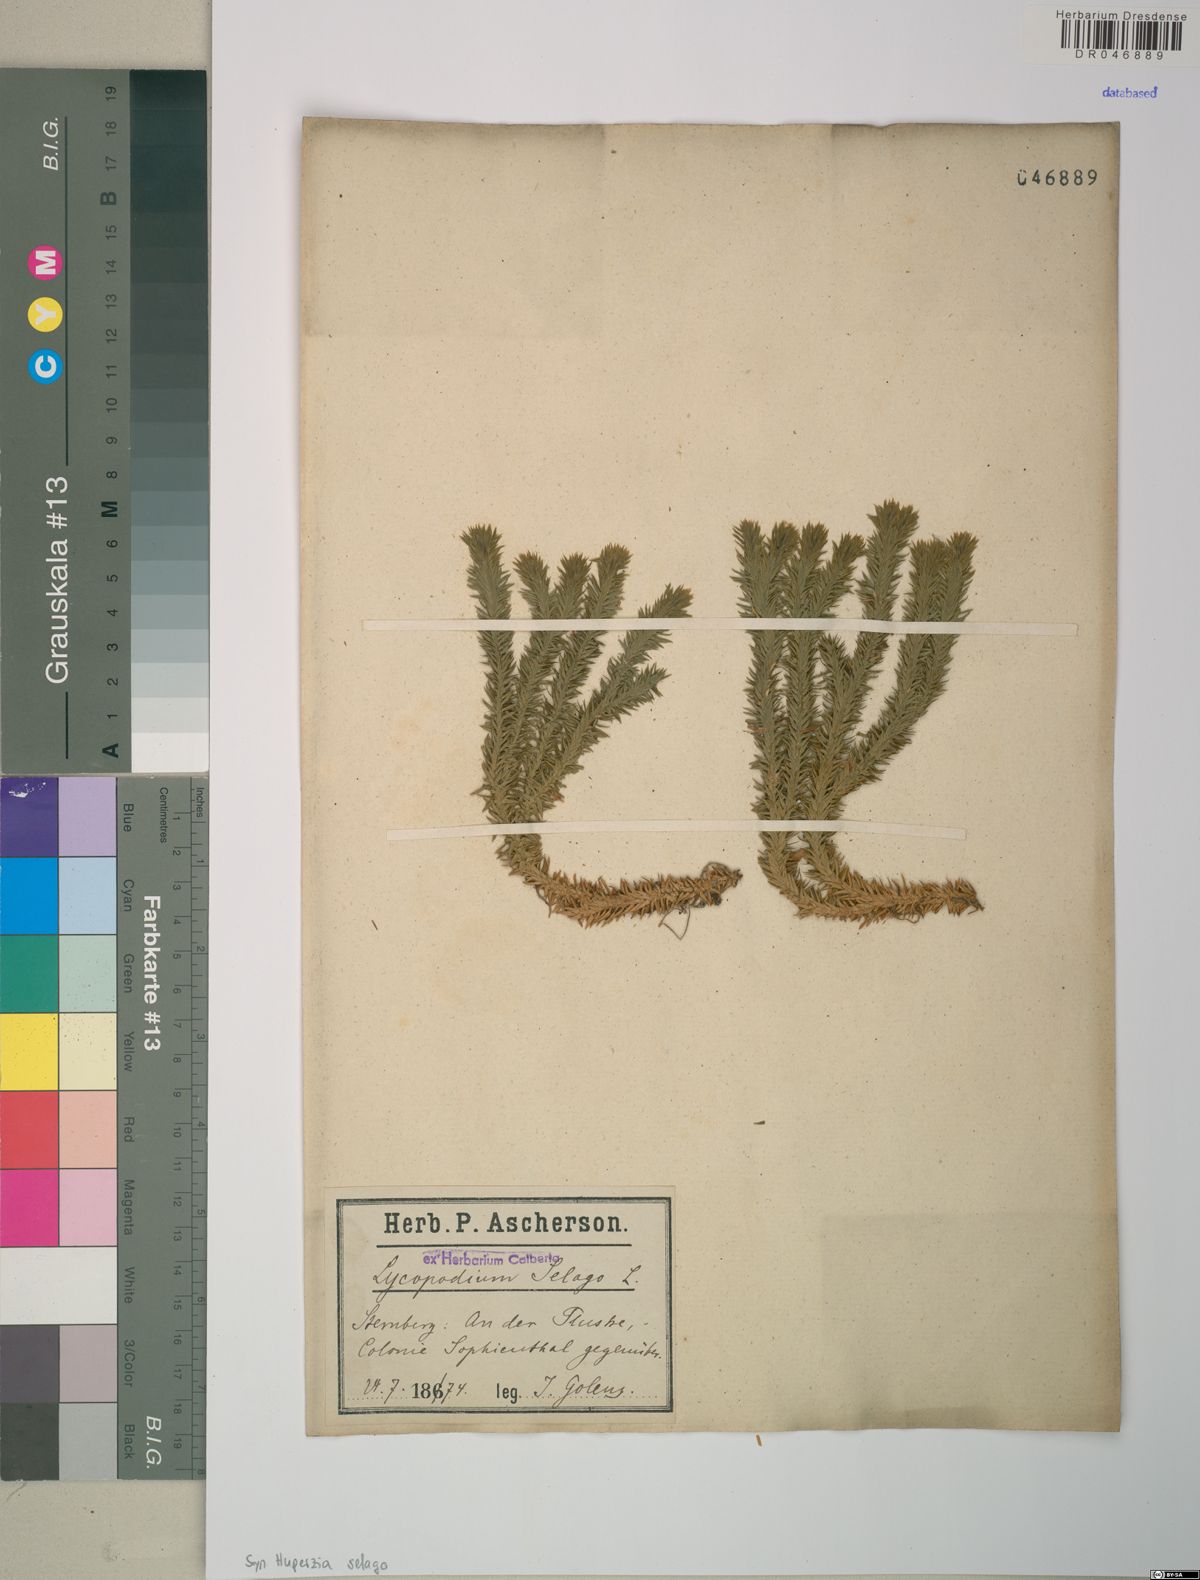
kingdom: Plantae
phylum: Tracheophyta
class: Lycopodiopsida
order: Lycopodiales
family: Lycopodiaceae
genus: Huperzia
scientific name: Huperzia selago
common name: Northern firmoss
